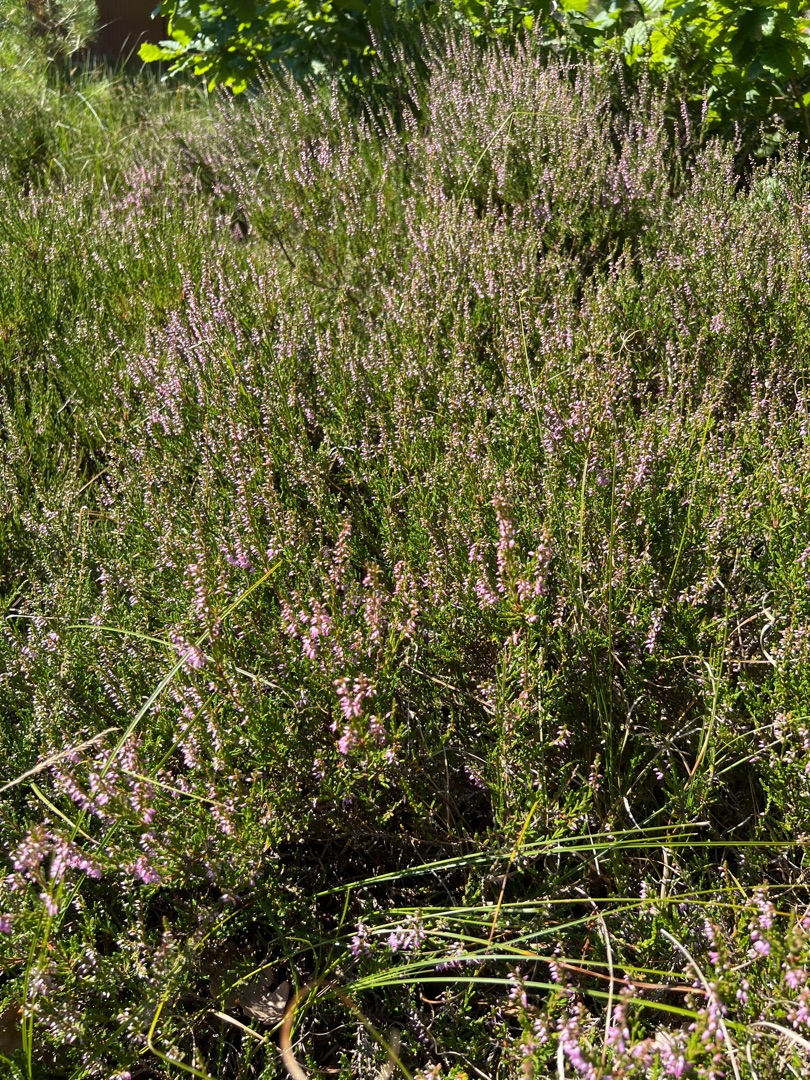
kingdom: Plantae
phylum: Tracheophyta
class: Magnoliopsida
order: Ericales
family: Ericaceae
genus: Calluna
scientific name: Calluna vulgaris
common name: Hedelyng
